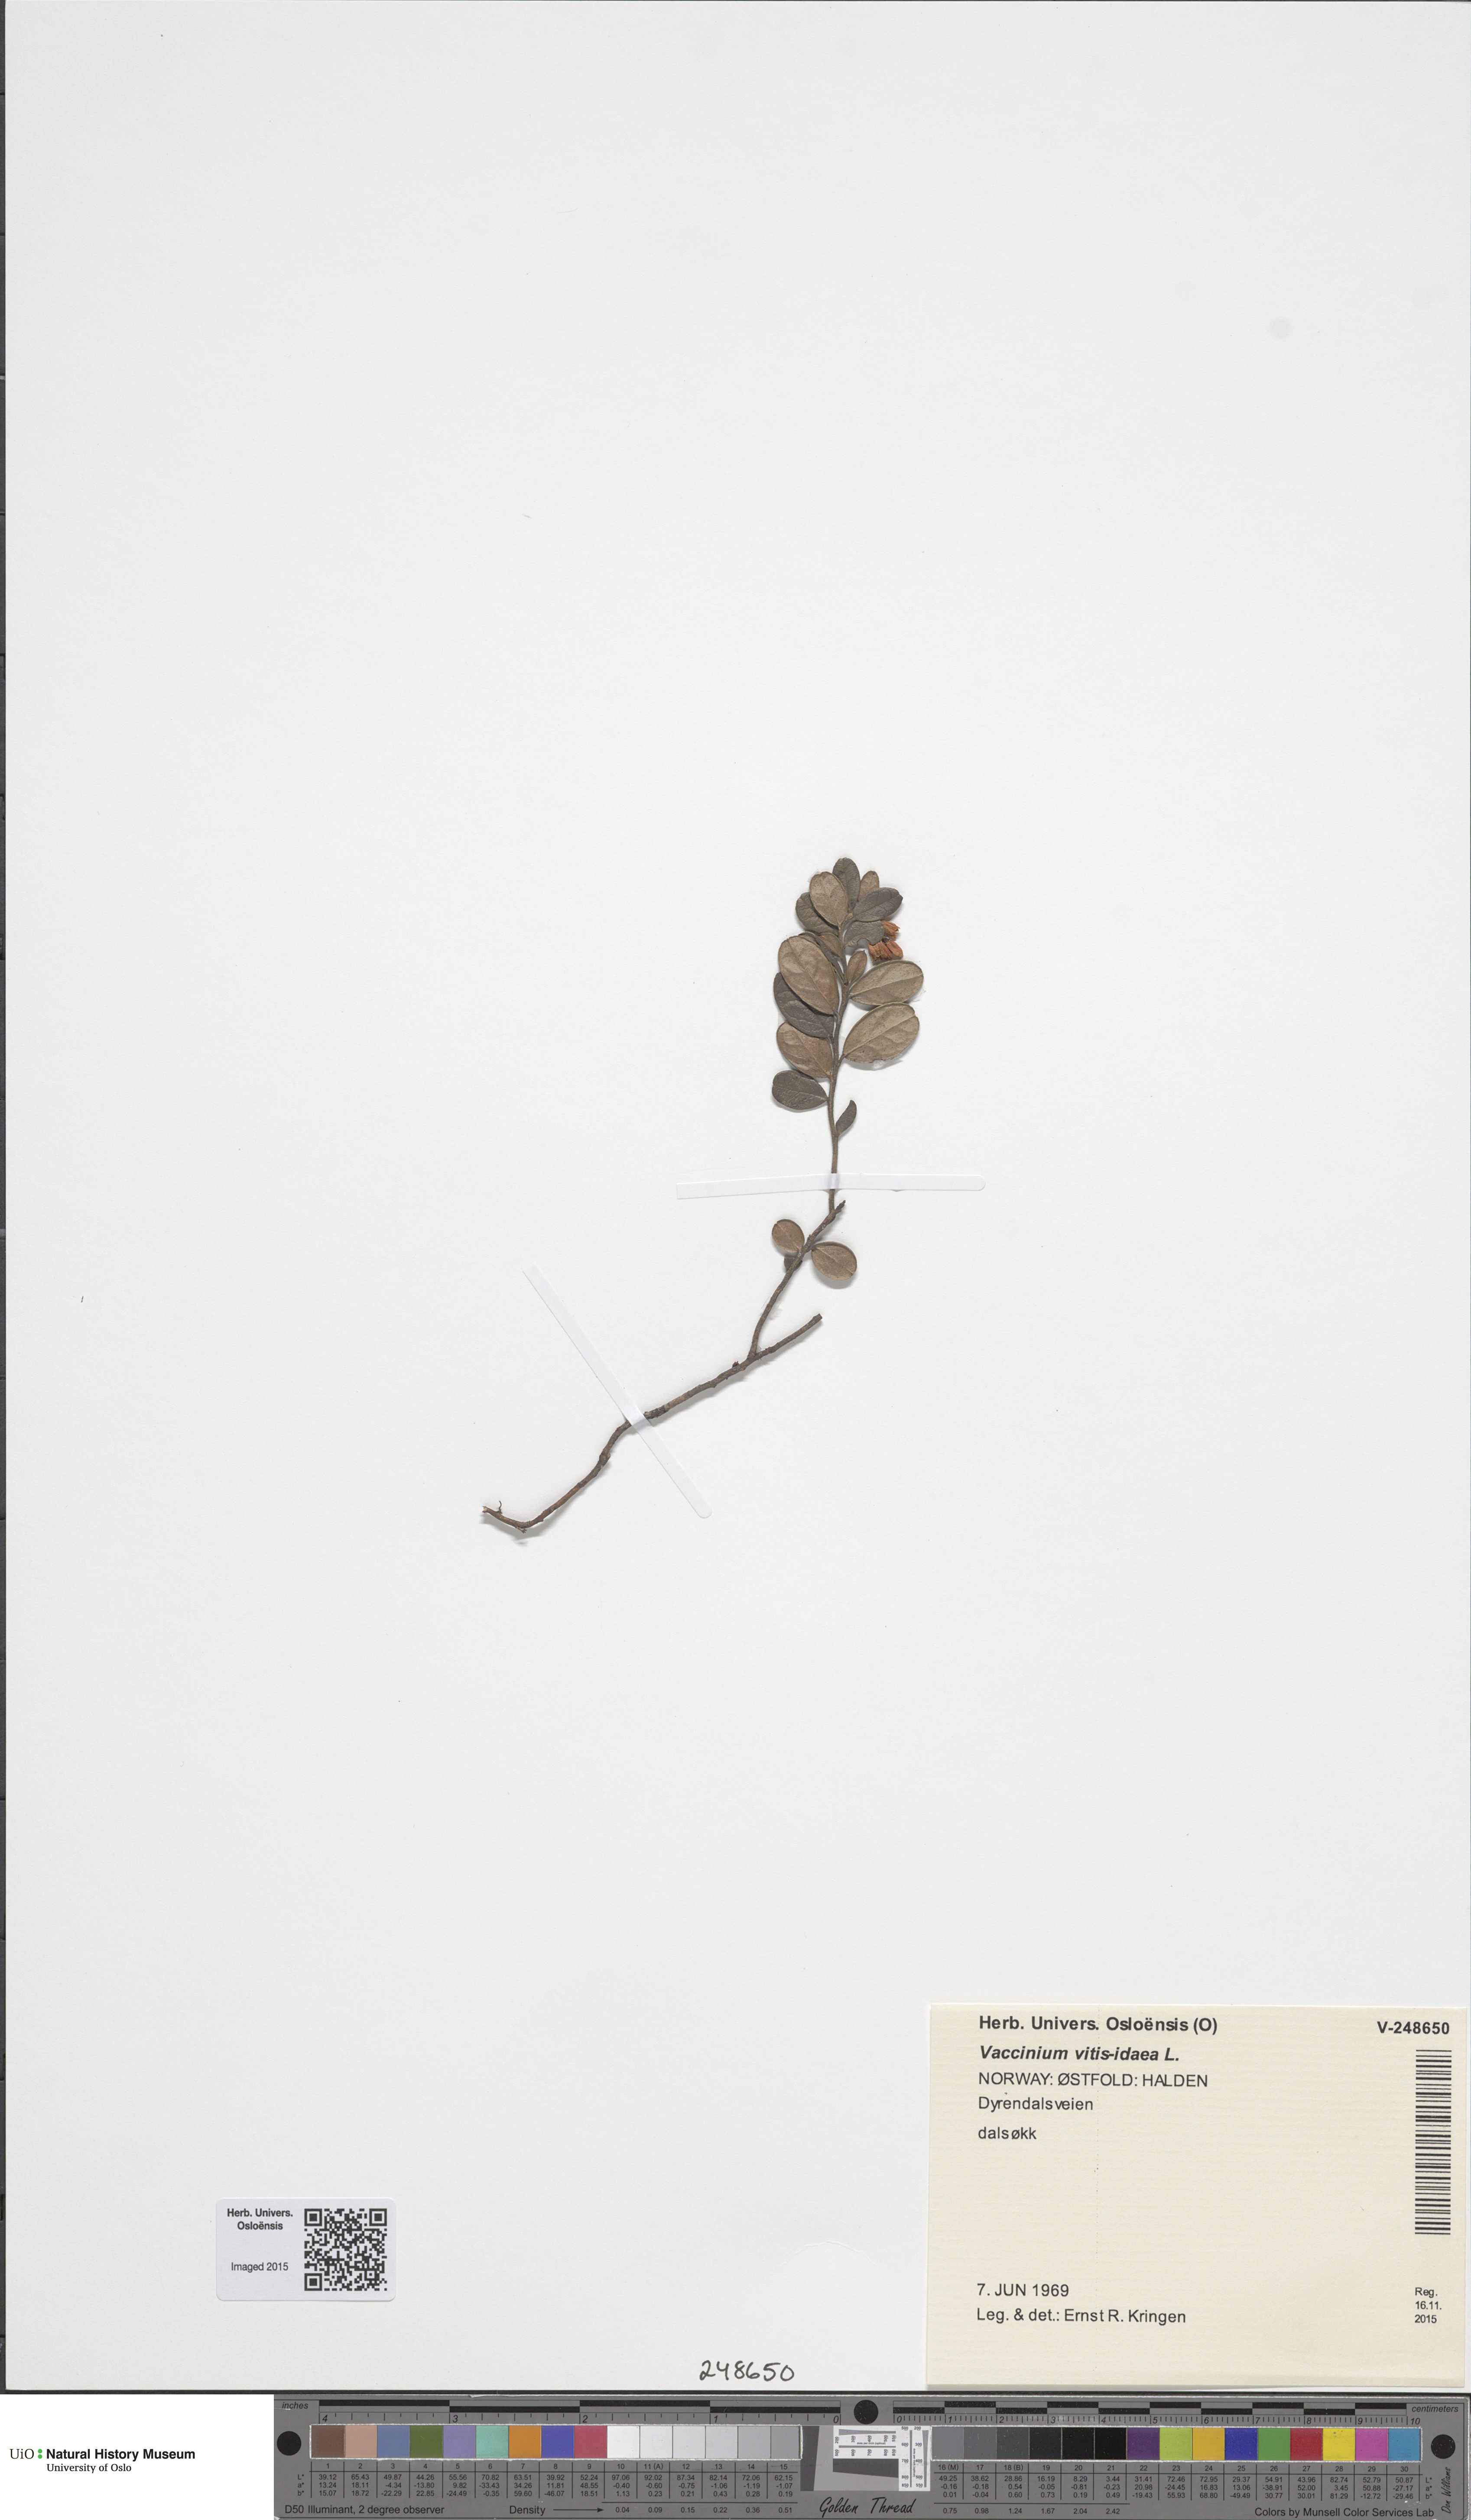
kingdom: Plantae
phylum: Tracheophyta
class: Magnoliopsida
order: Ericales
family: Ericaceae
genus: Vaccinium
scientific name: Vaccinium vitis-idaea
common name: Cowberry
